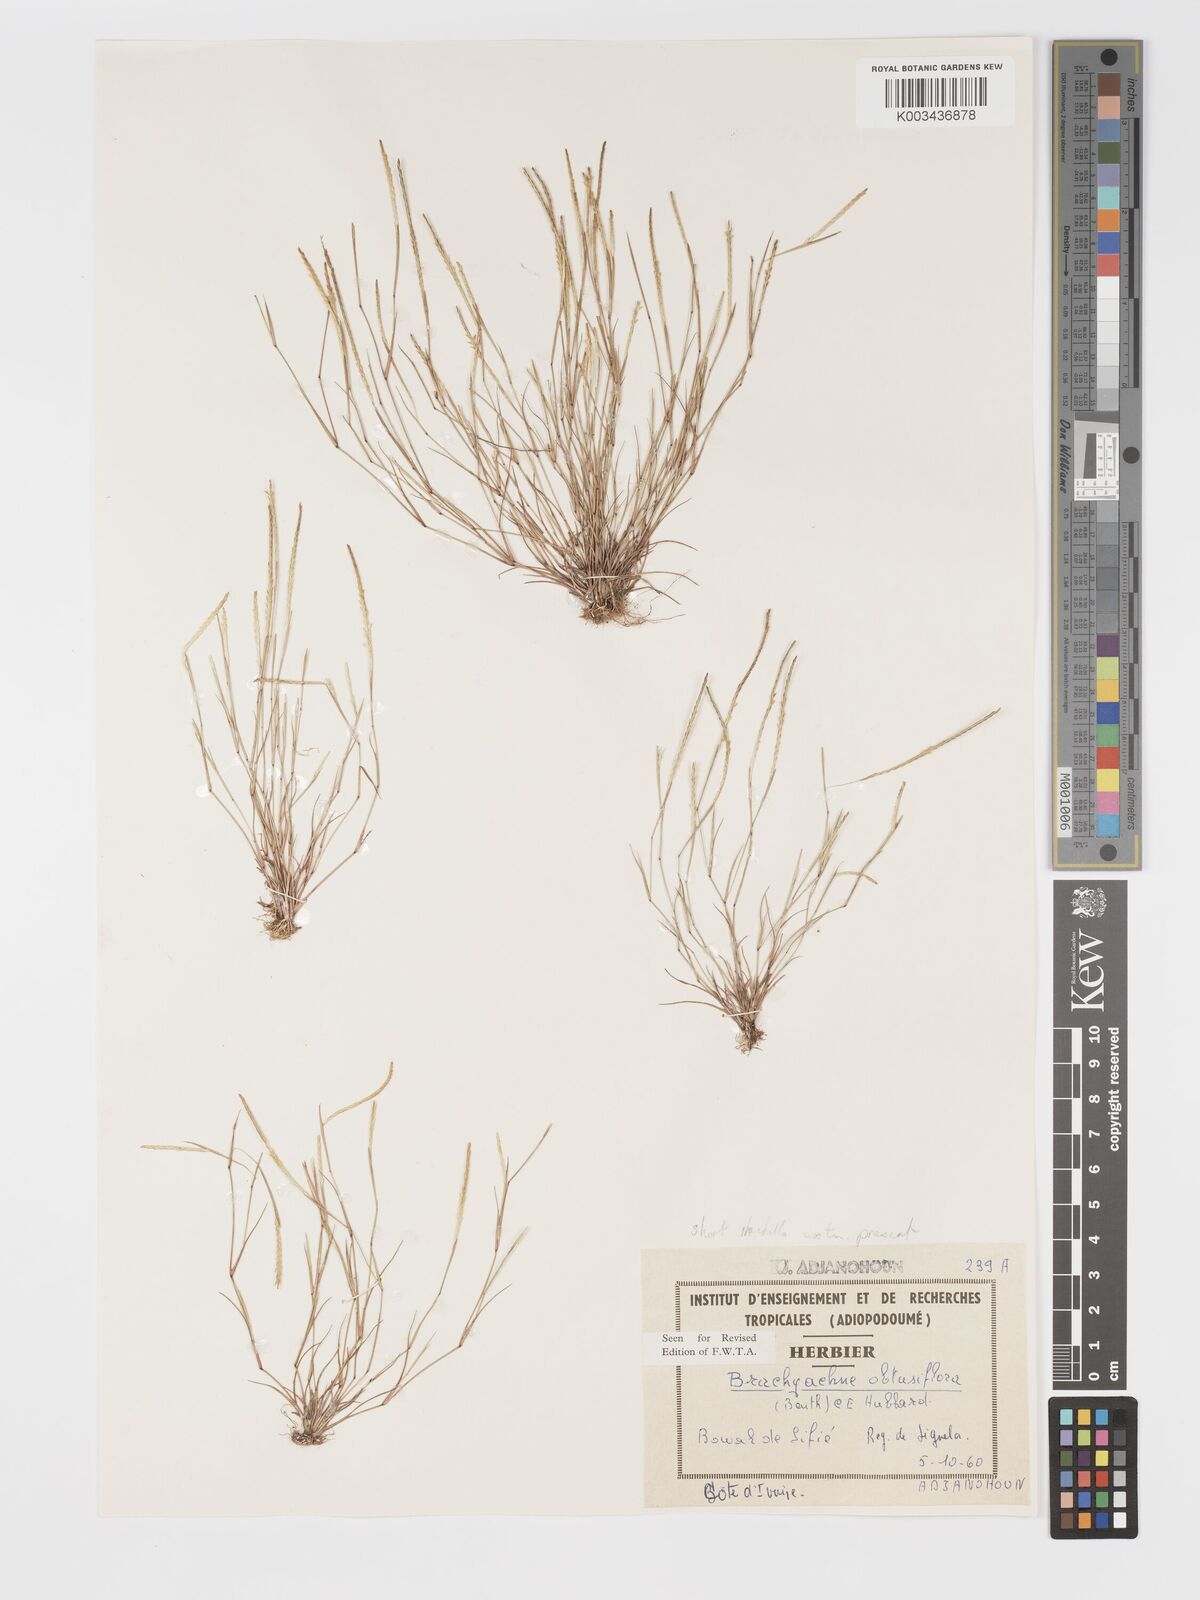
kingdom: Plantae
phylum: Tracheophyta
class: Liliopsida
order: Poales
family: Poaceae
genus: Micrachne
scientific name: Micrachne obtusiflora
